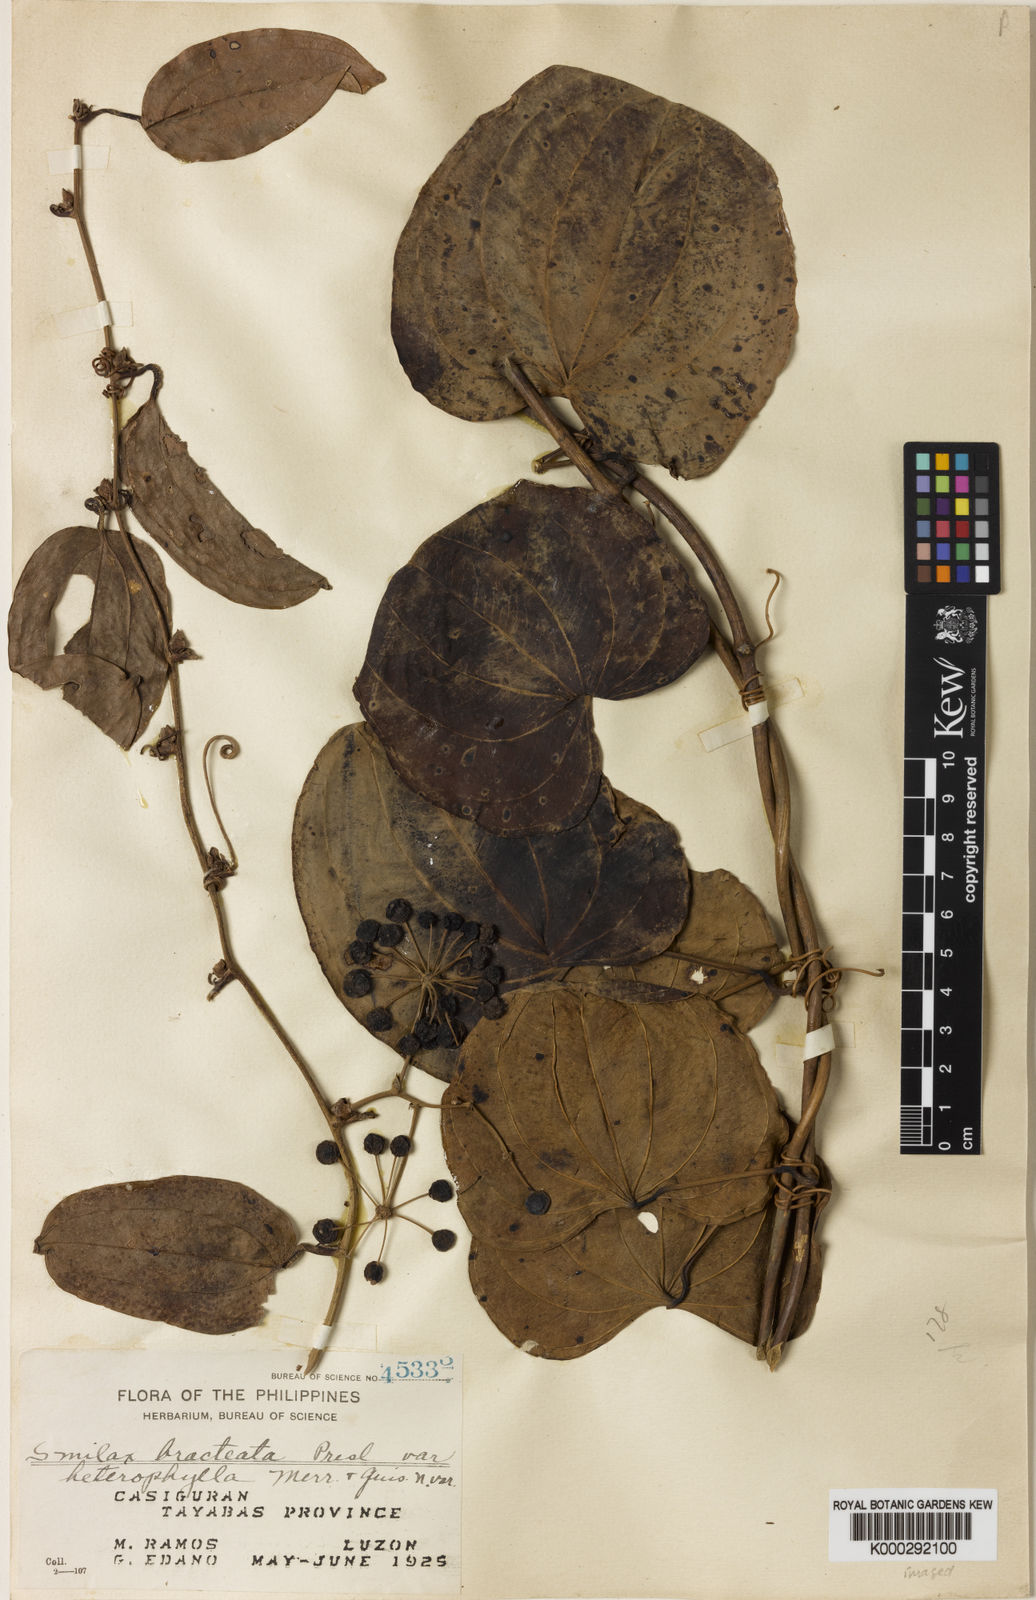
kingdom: Plantae
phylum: Tracheophyta
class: Liliopsida
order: Liliales
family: Smilacaceae
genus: Smilax
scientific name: Smilax bracteata
